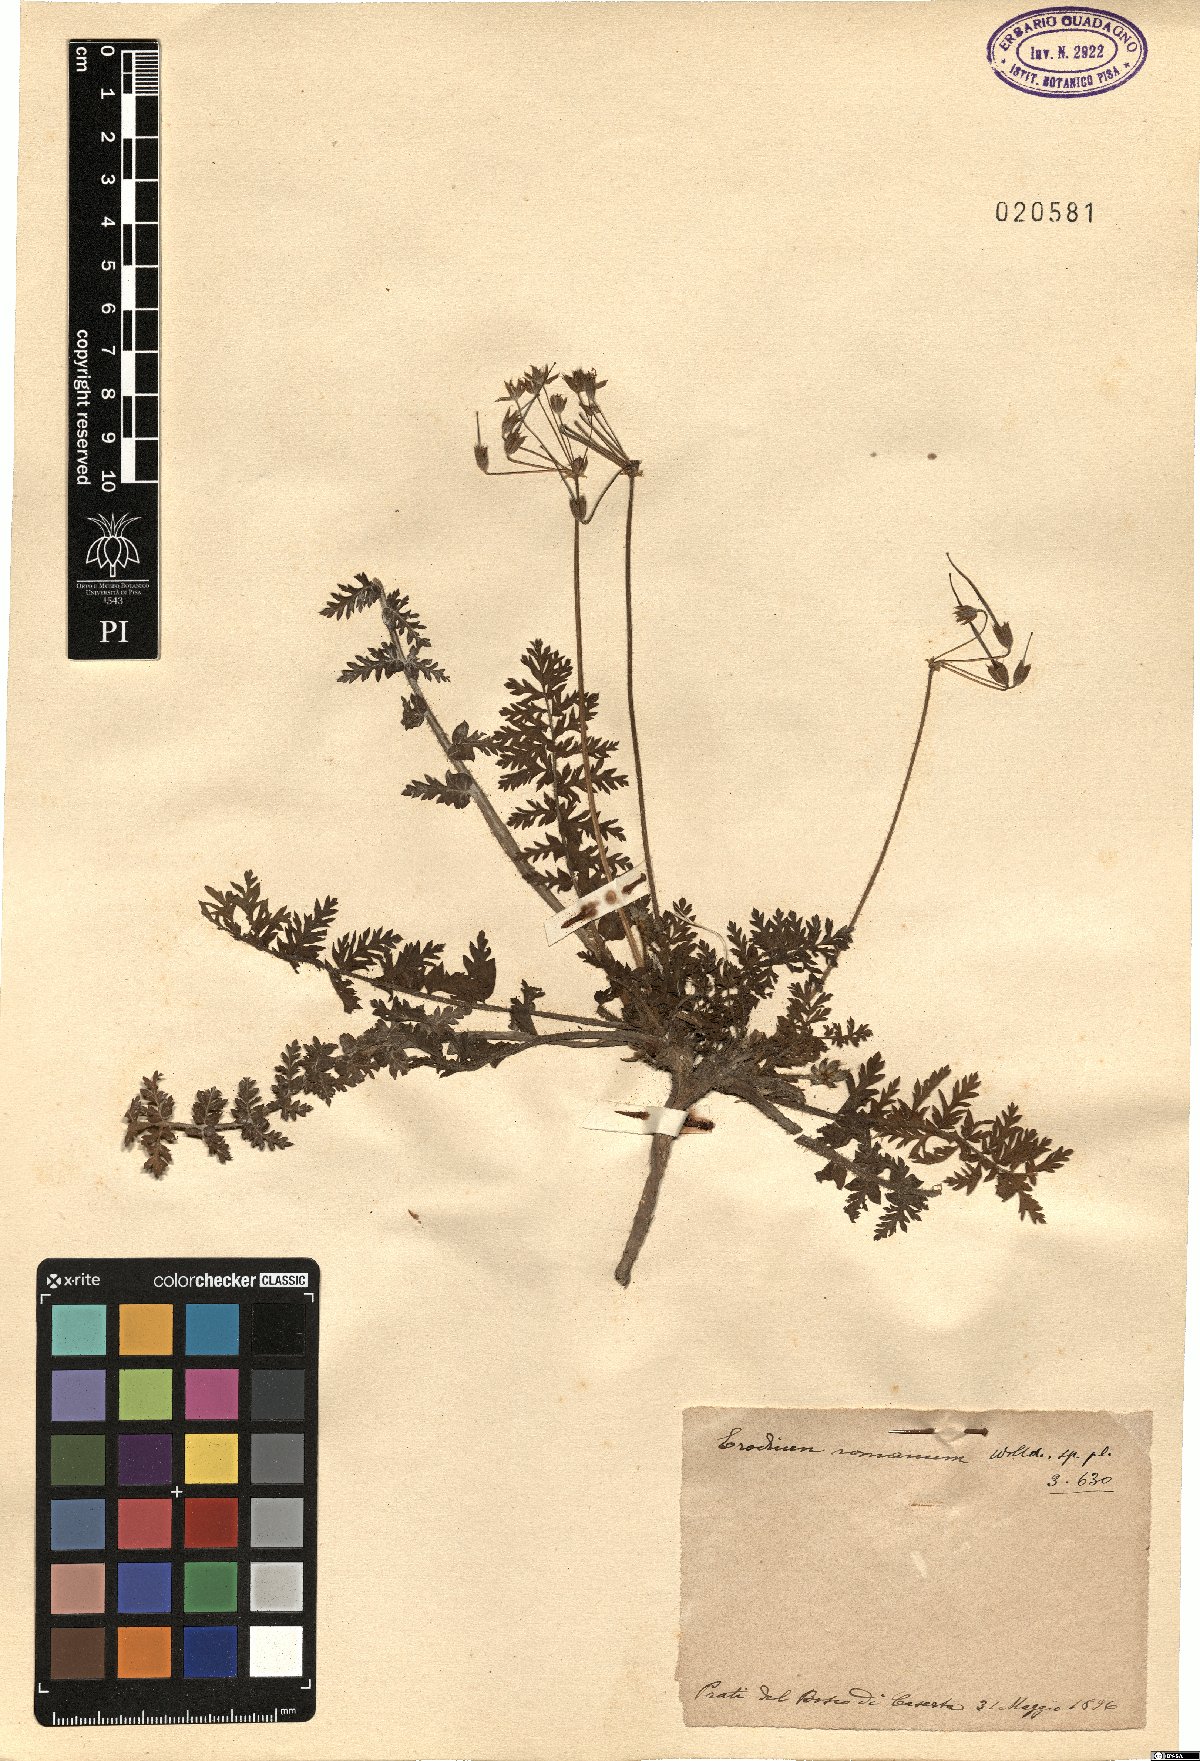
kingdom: Plantae
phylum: Tracheophyta
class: Magnoliopsida
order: Geraniales
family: Geraniaceae
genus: Erodium
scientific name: Erodium acaule
